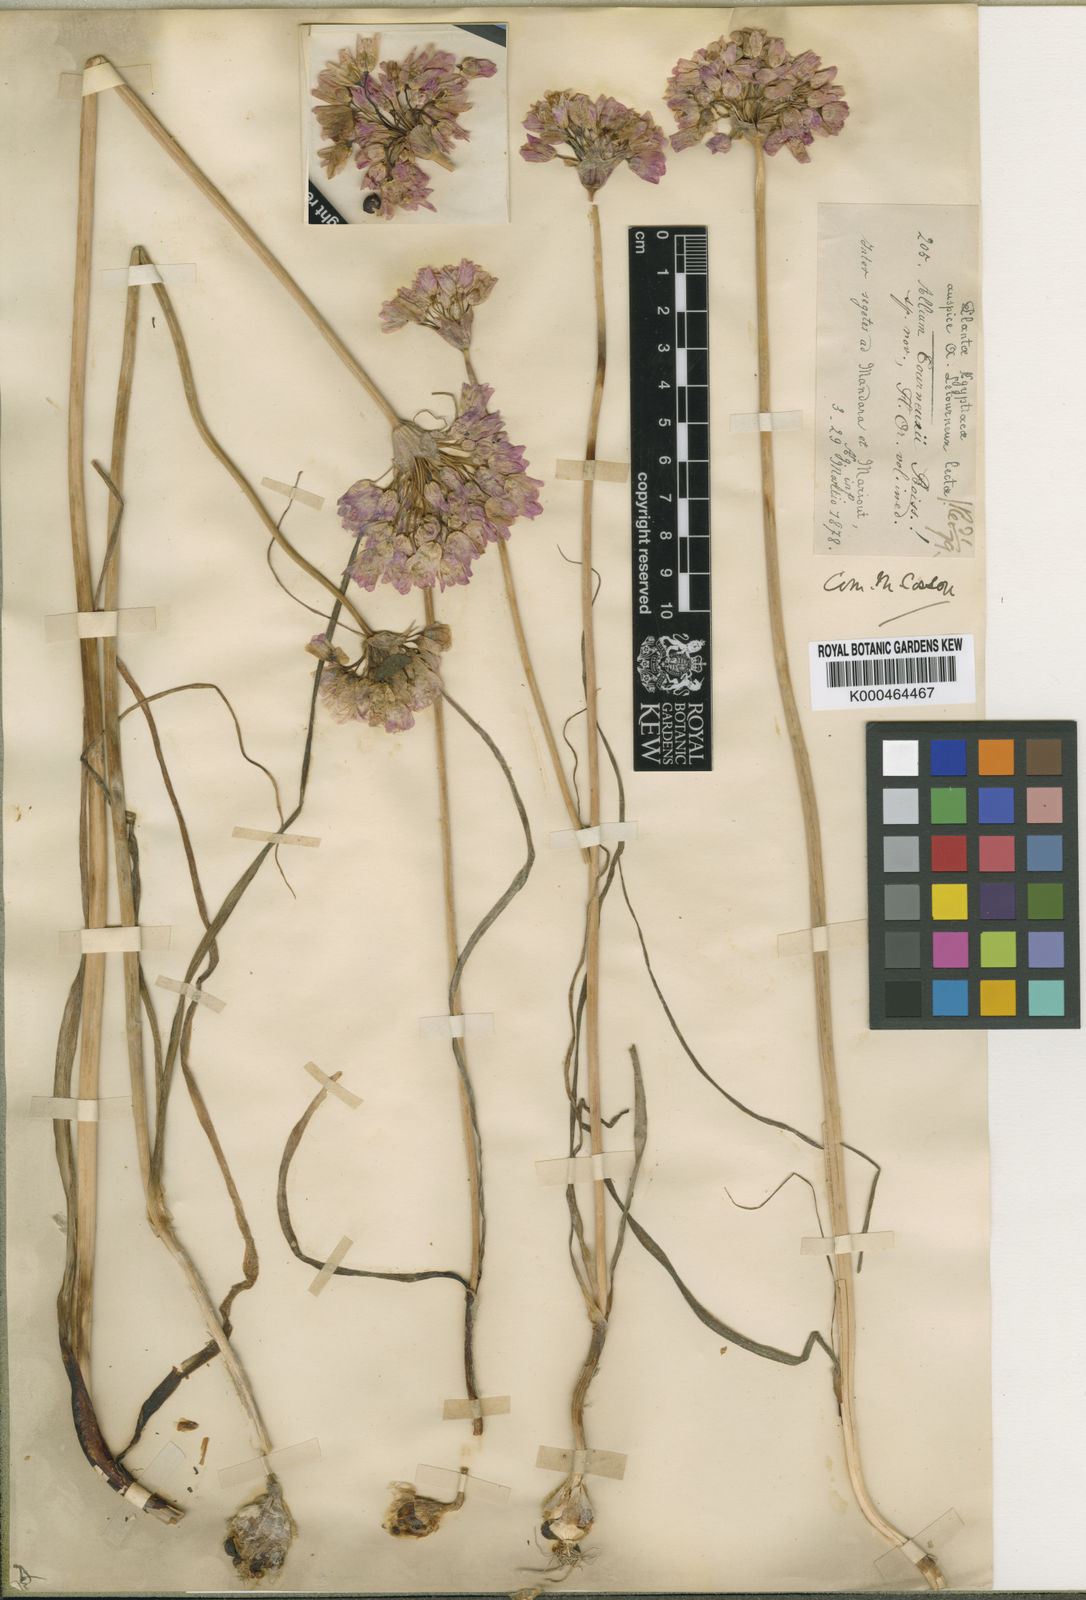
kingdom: Plantae
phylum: Tracheophyta
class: Liliopsida
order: Asparagales
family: Amaryllidaceae
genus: Allium
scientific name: Allium roseum
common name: Rosy garlic
